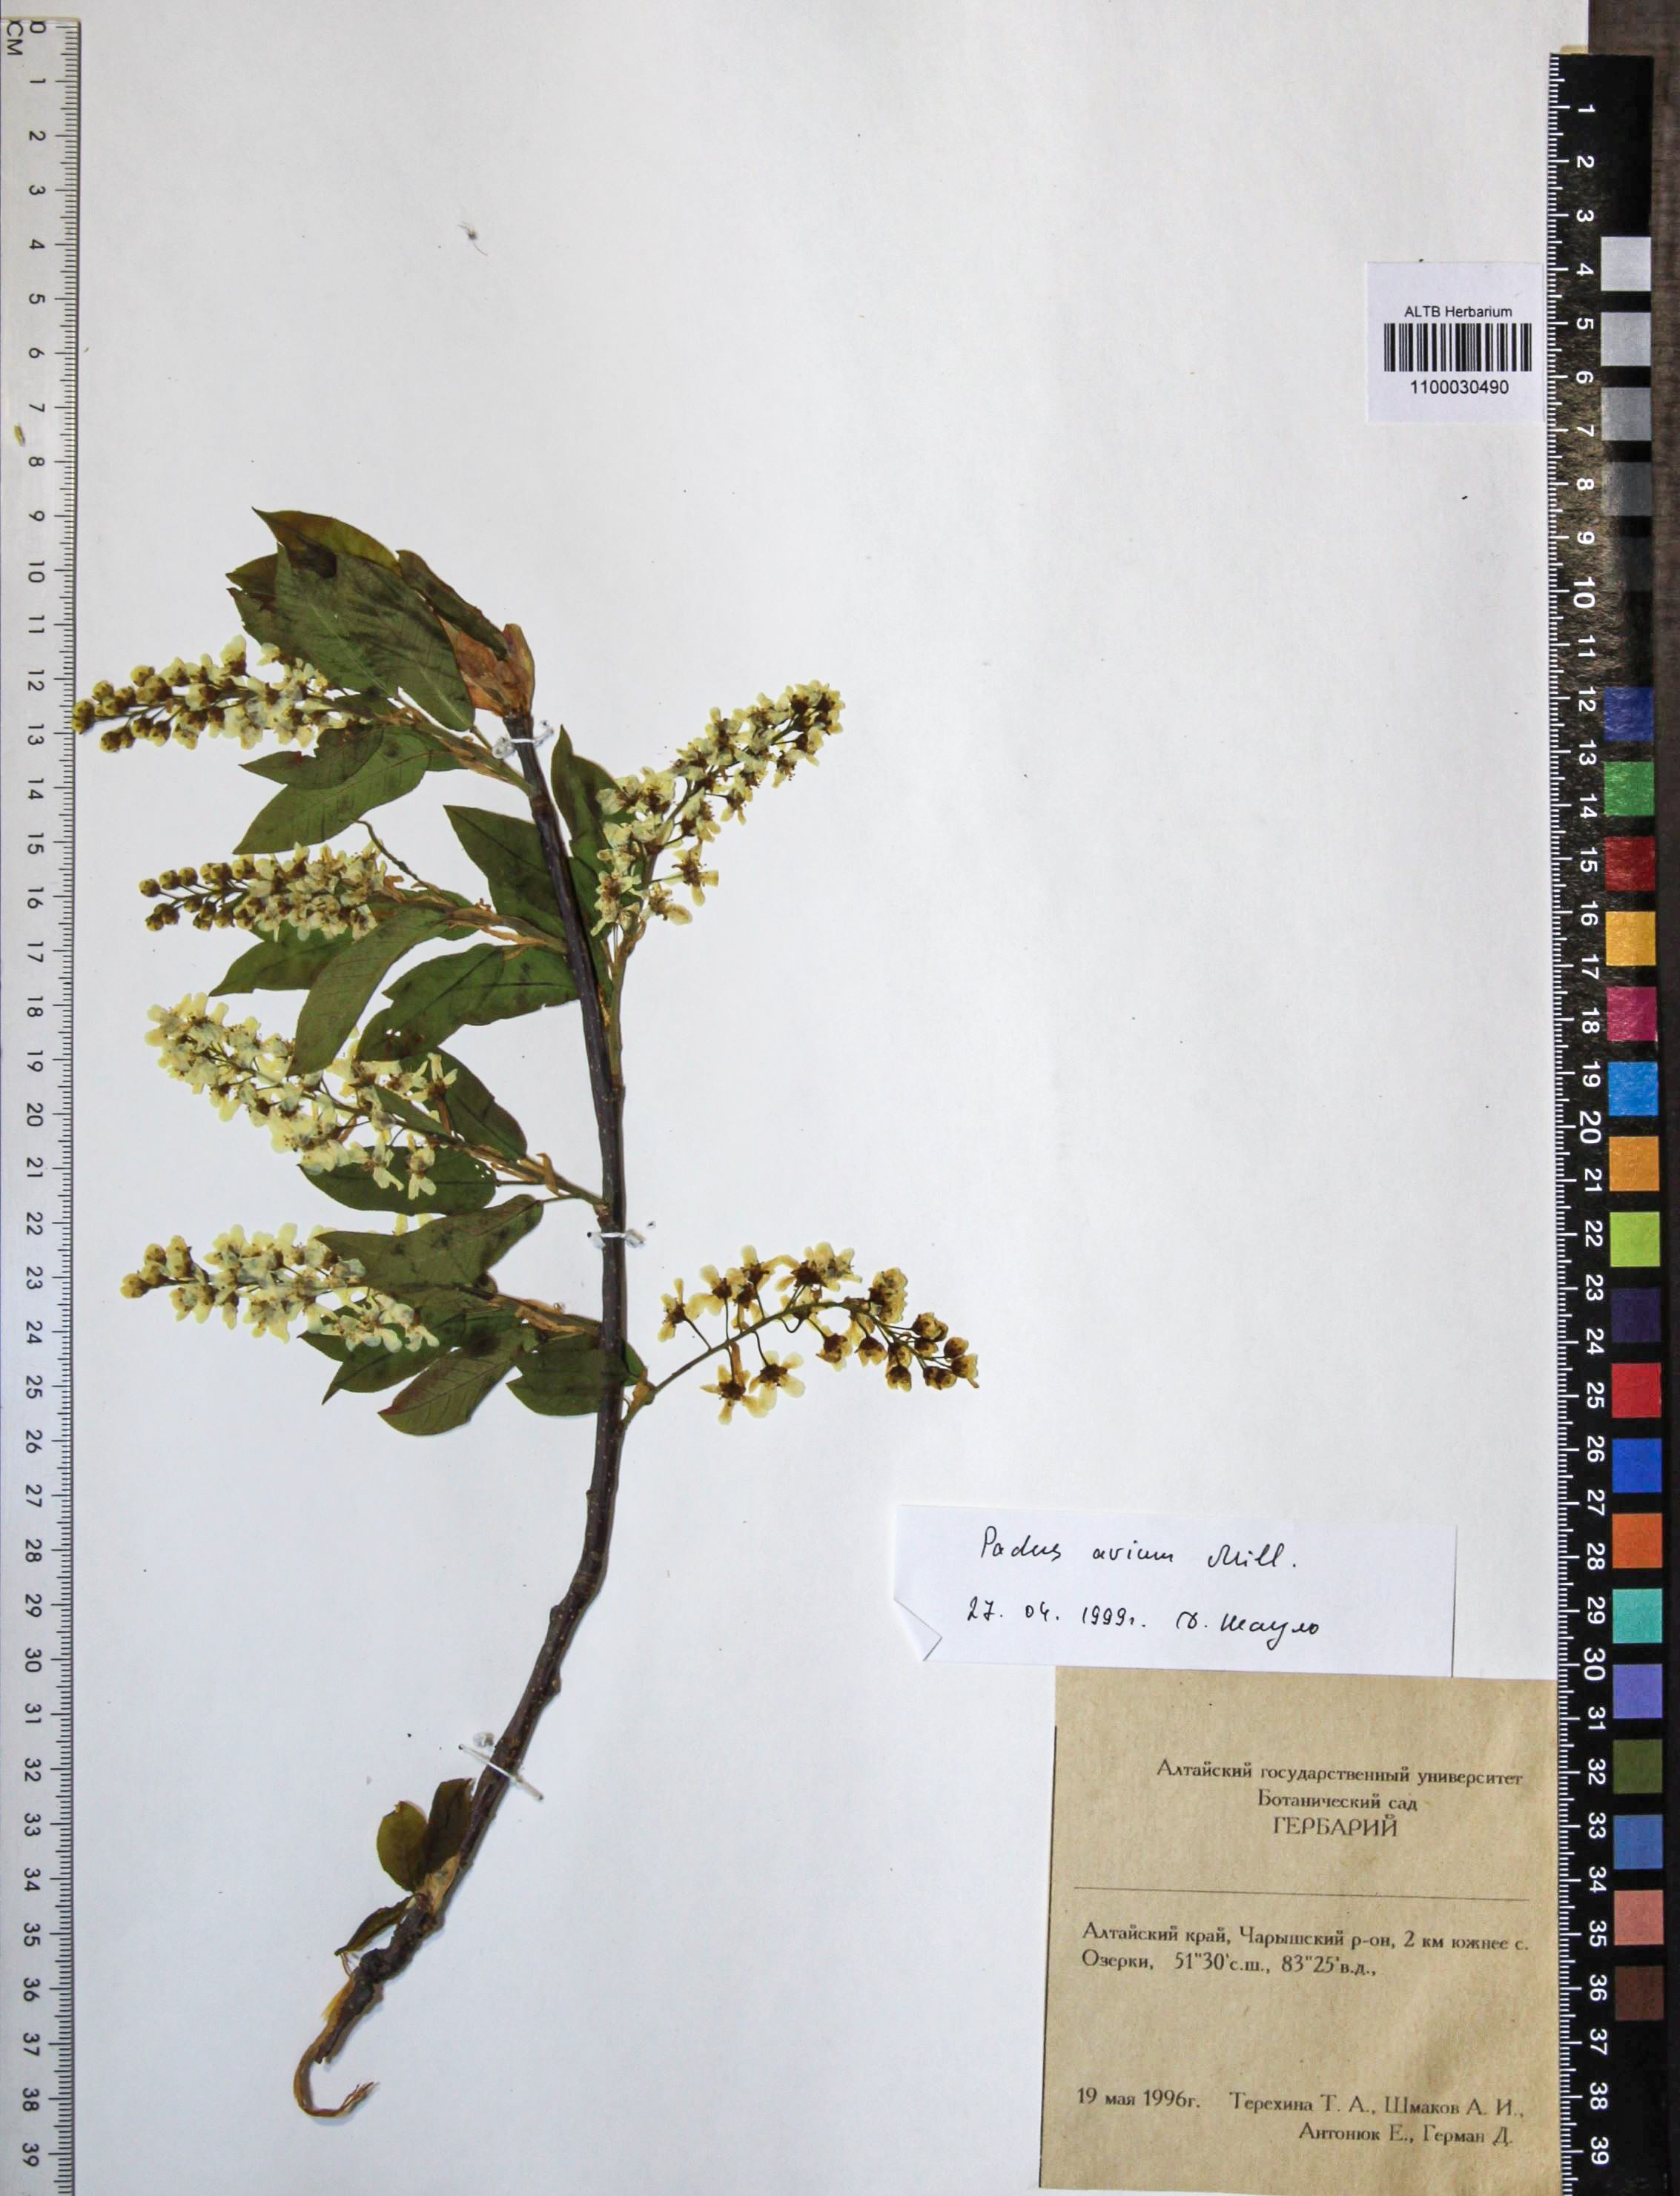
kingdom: Plantae
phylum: Tracheophyta
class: Magnoliopsida
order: Rosales
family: Rosaceae
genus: Prunus
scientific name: Prunus padus
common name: Bird cherry
